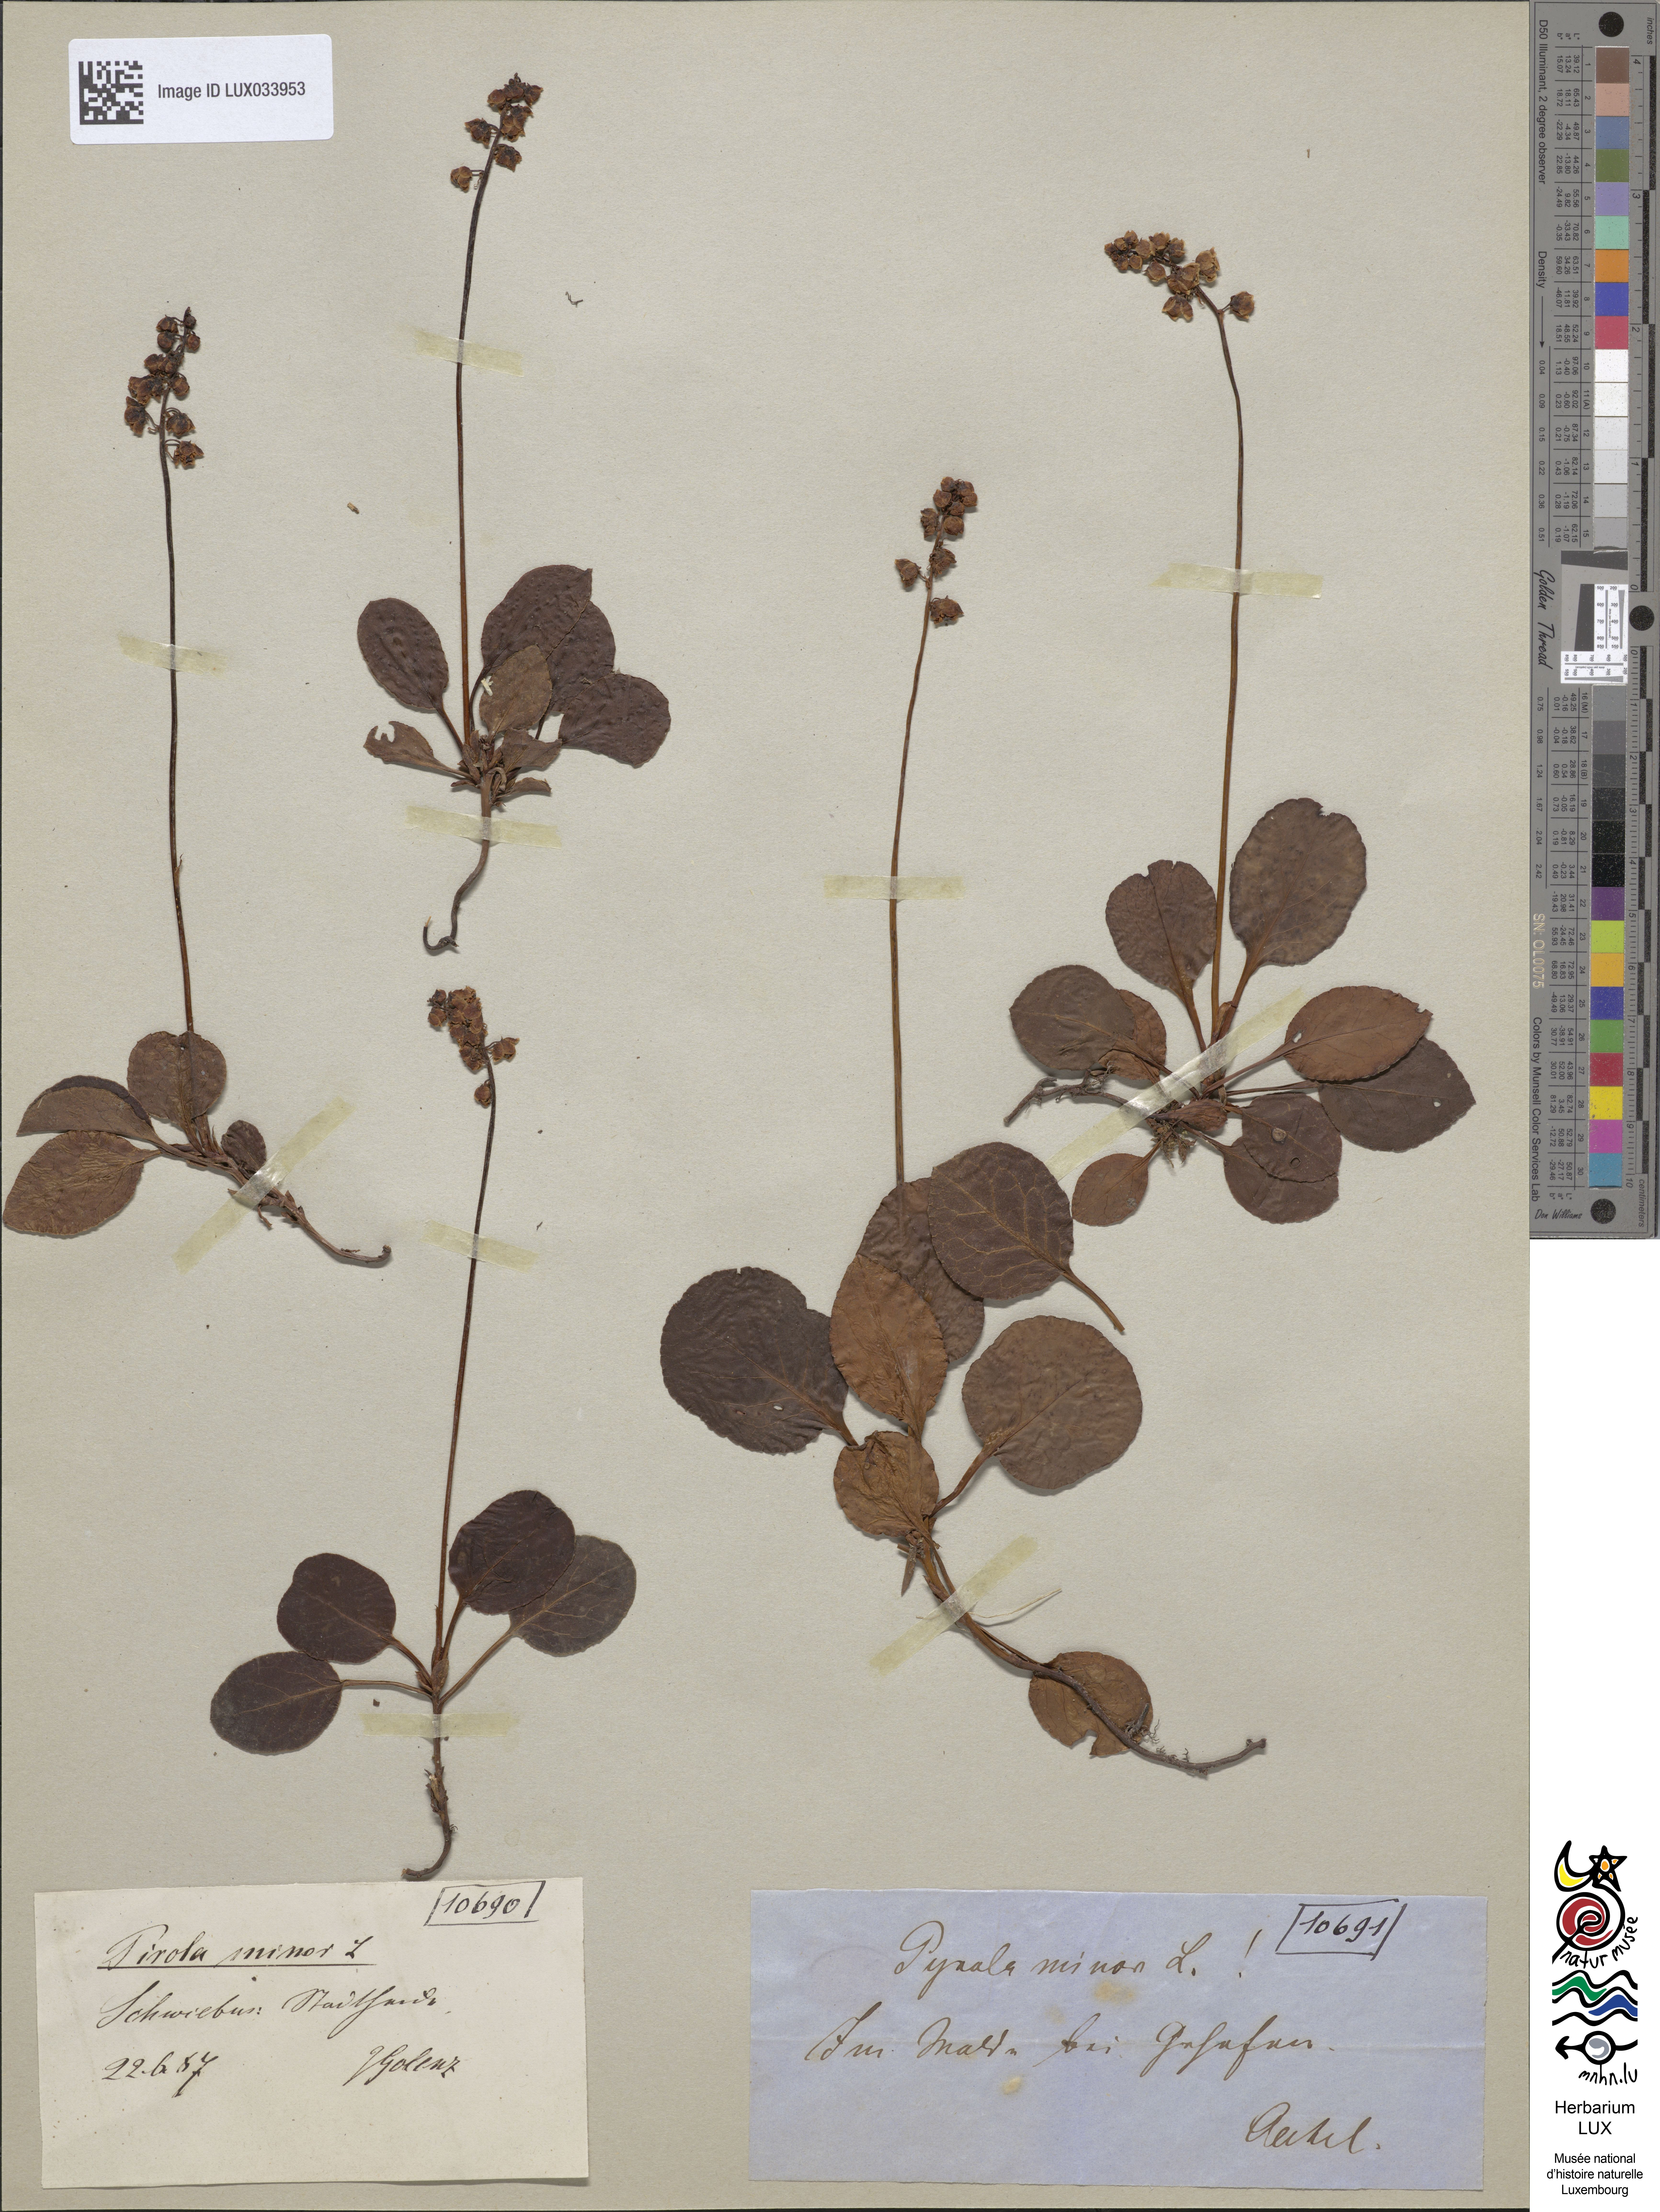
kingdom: Plantae
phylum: Tracheophyta
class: Magnoliopsida
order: Ericales
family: Ericaceae
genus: Pyrola
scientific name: Pyrola minor
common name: Common wintergreen
